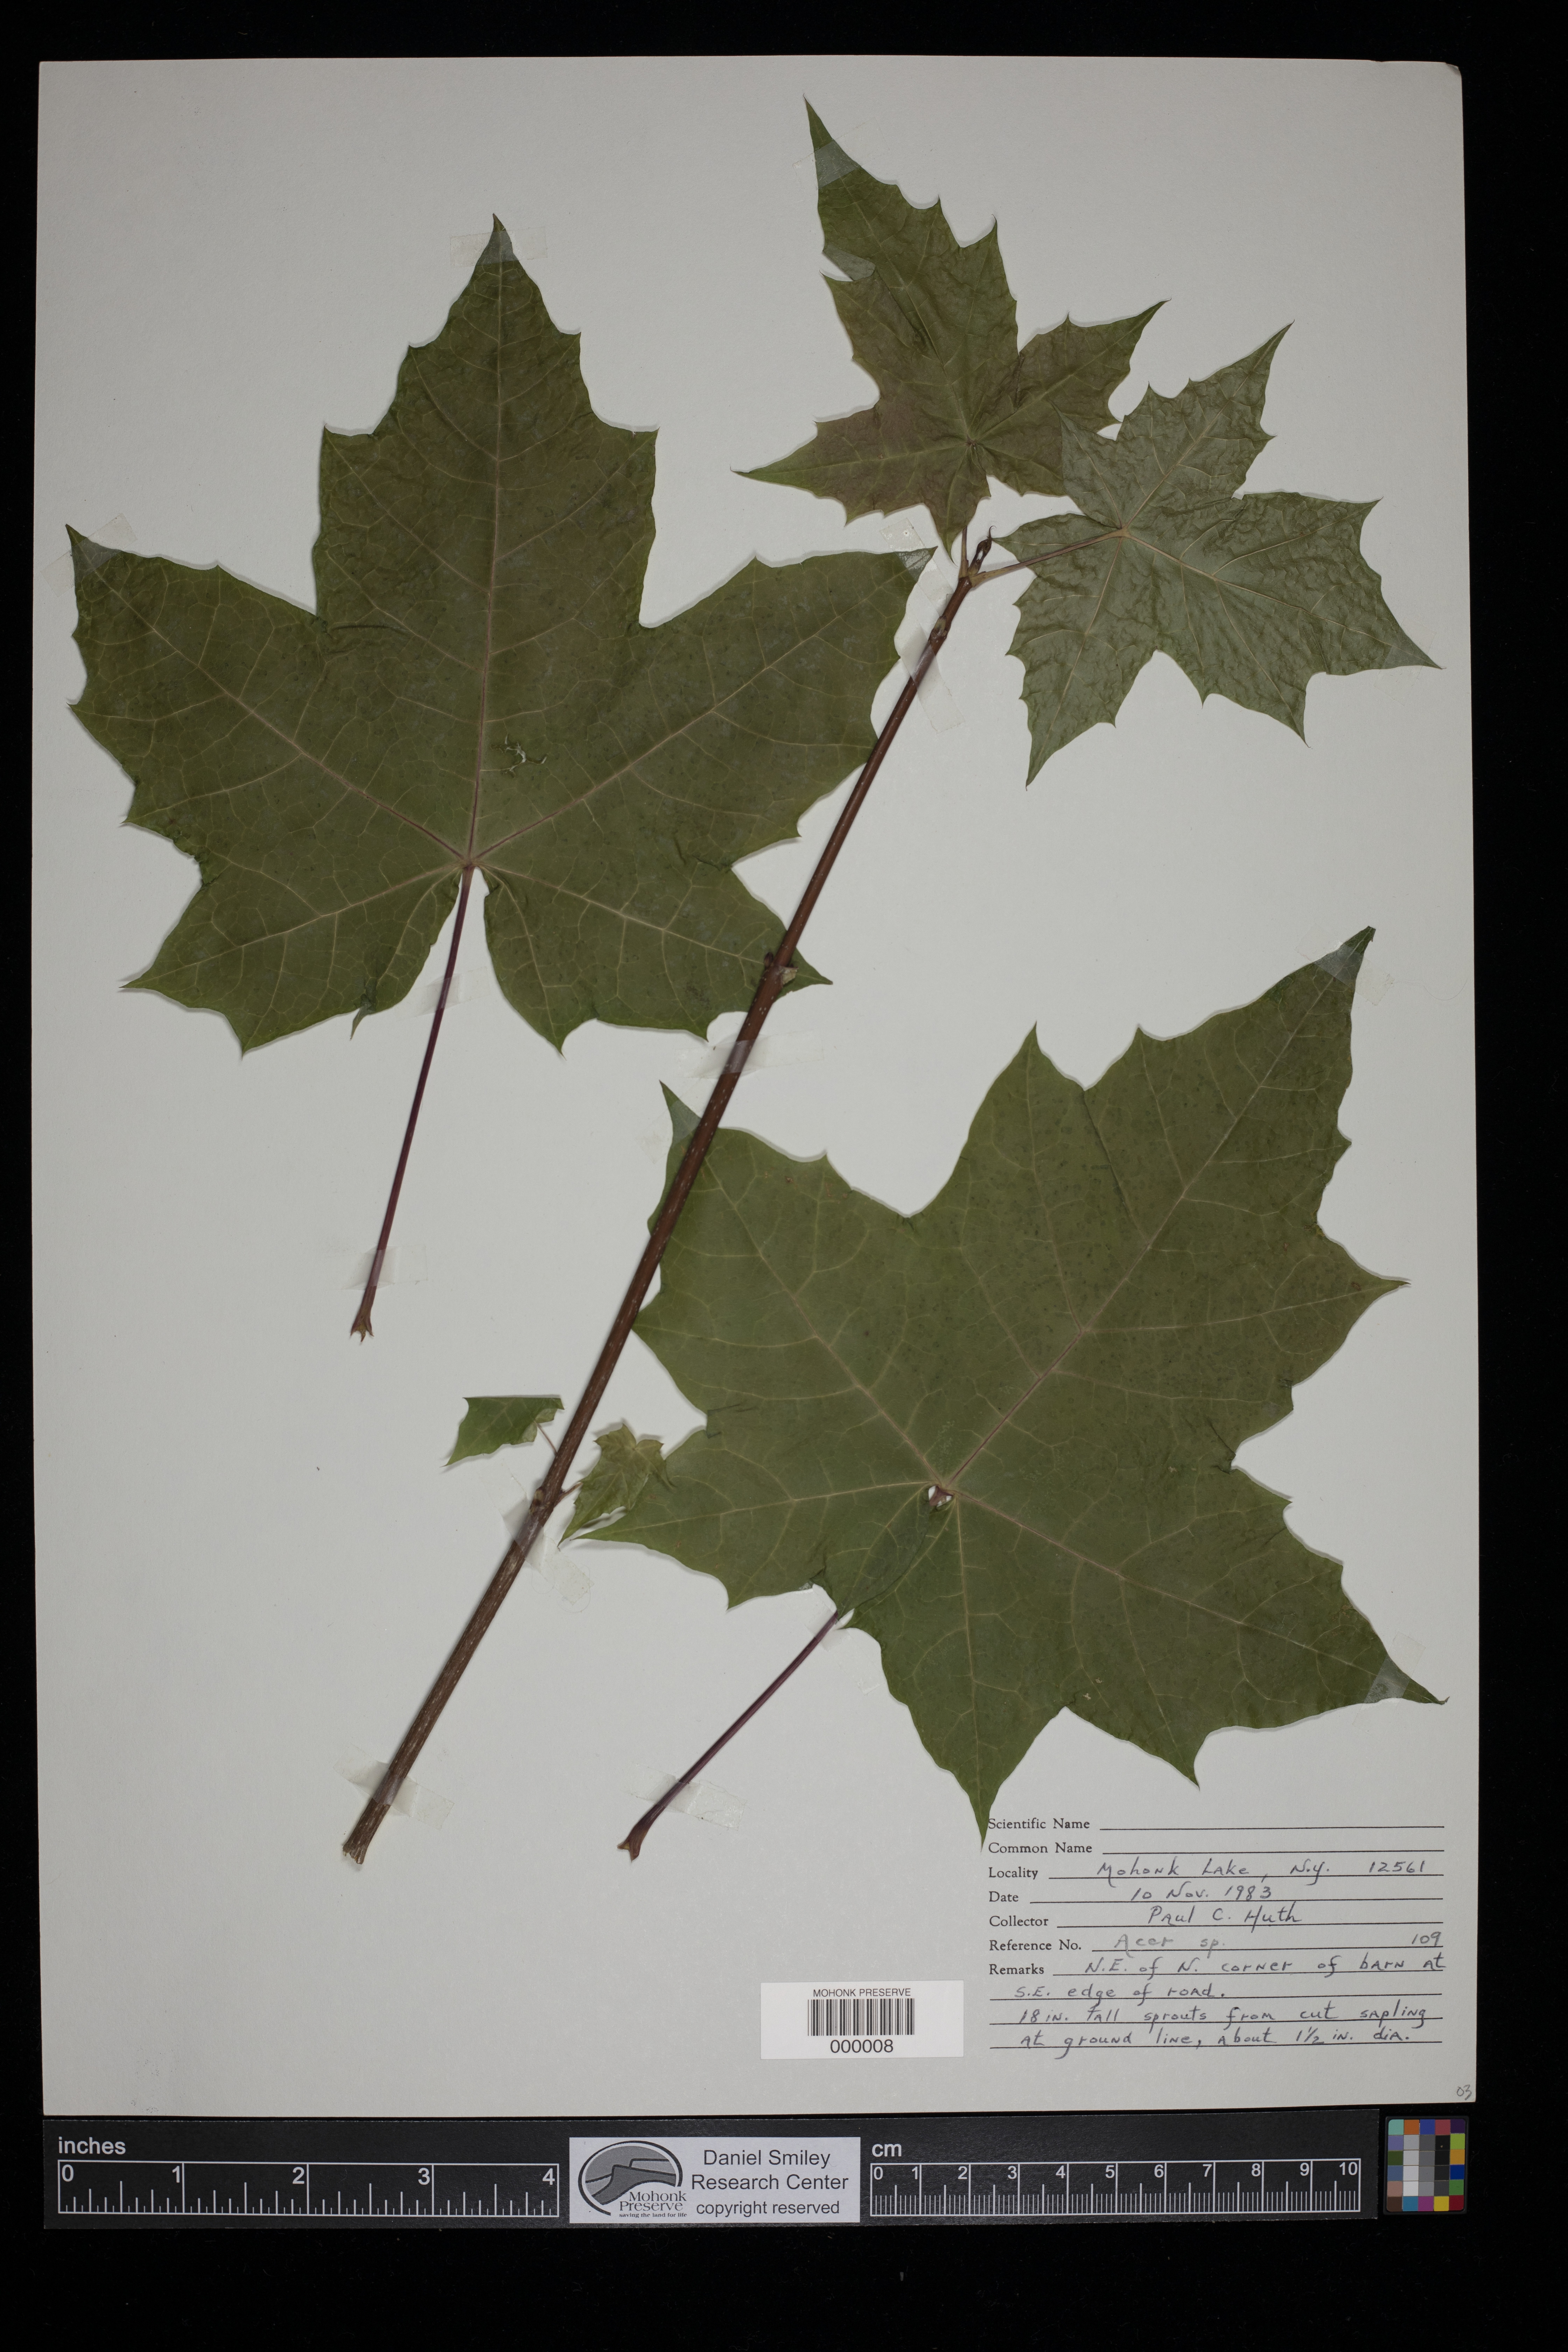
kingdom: Plantae
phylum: Tracheophyta
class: Magnoliopsida
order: Sapindales
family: Sapindaceae
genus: Acer
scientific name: Acer
